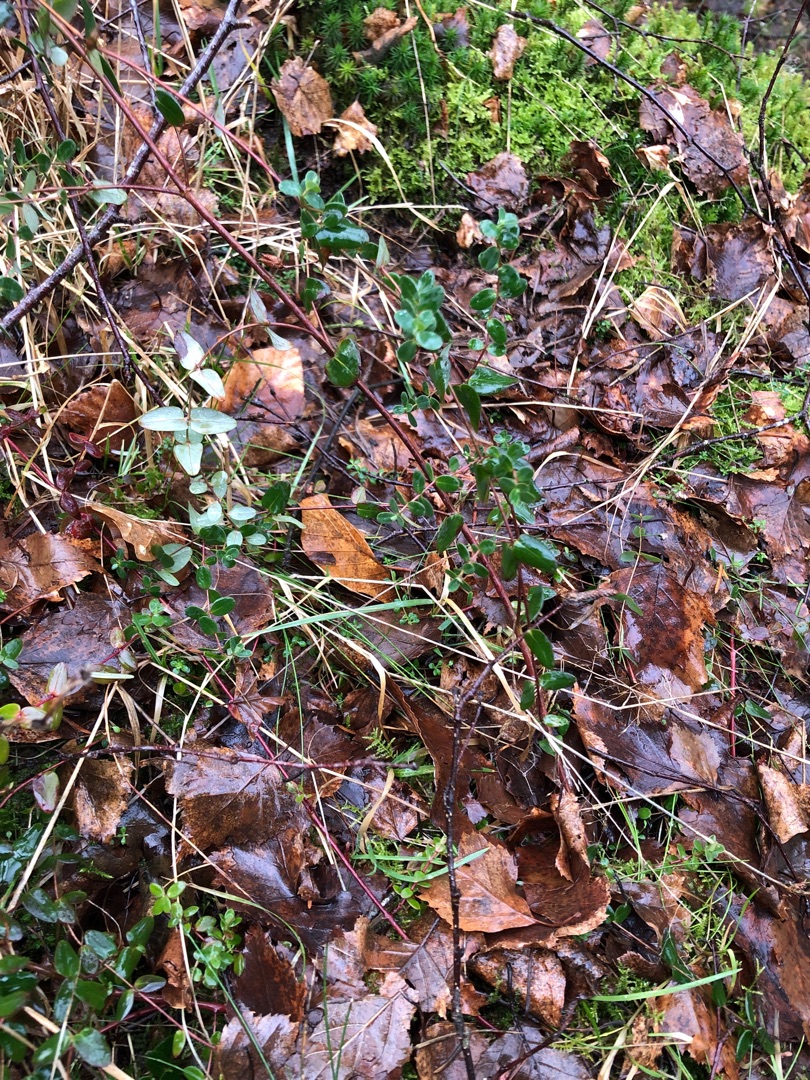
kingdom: Plantae
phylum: Tracheophyta
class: Magnoliopsida
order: Malpighiales
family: Hypericaceae
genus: Hypericum
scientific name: Hypericum pulchrum
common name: Smuk perikon
